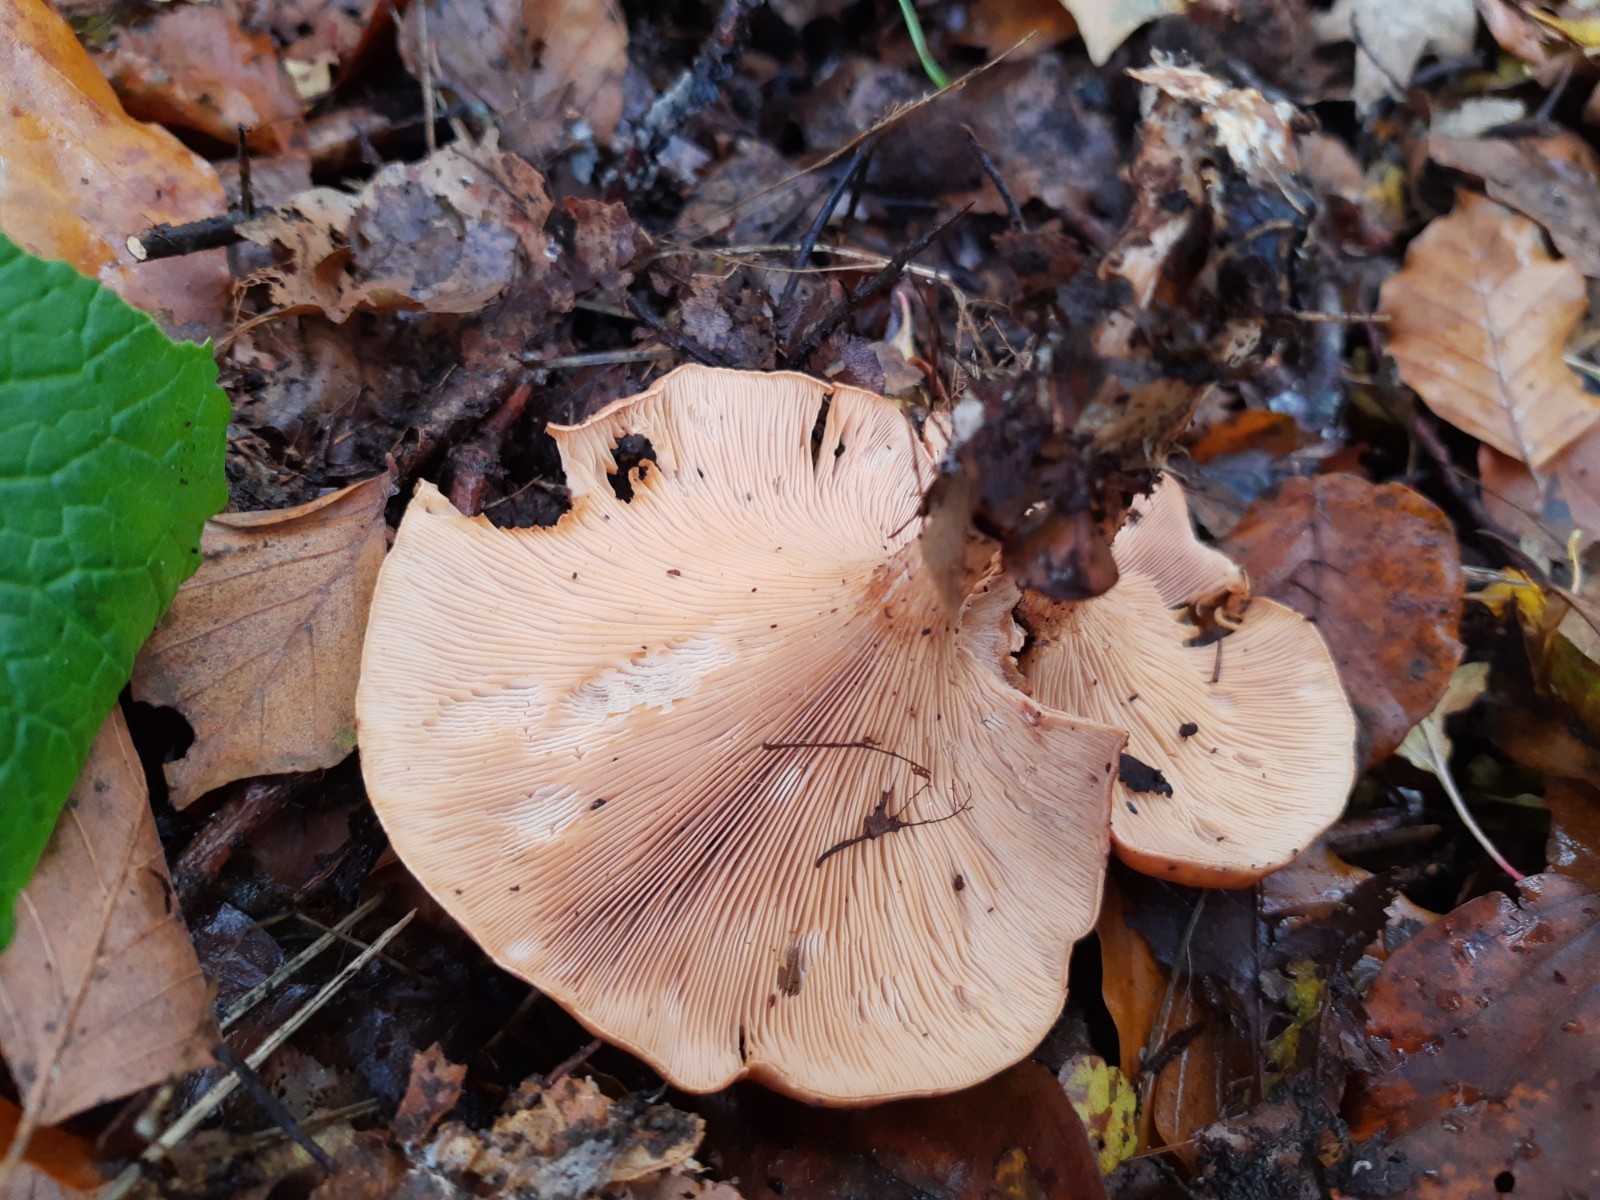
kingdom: Fungi
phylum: Basidiomycota
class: Agaricomycetes
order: Agaricales
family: Tricholomataceae
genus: Paralepista
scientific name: Paralepista flaccida
